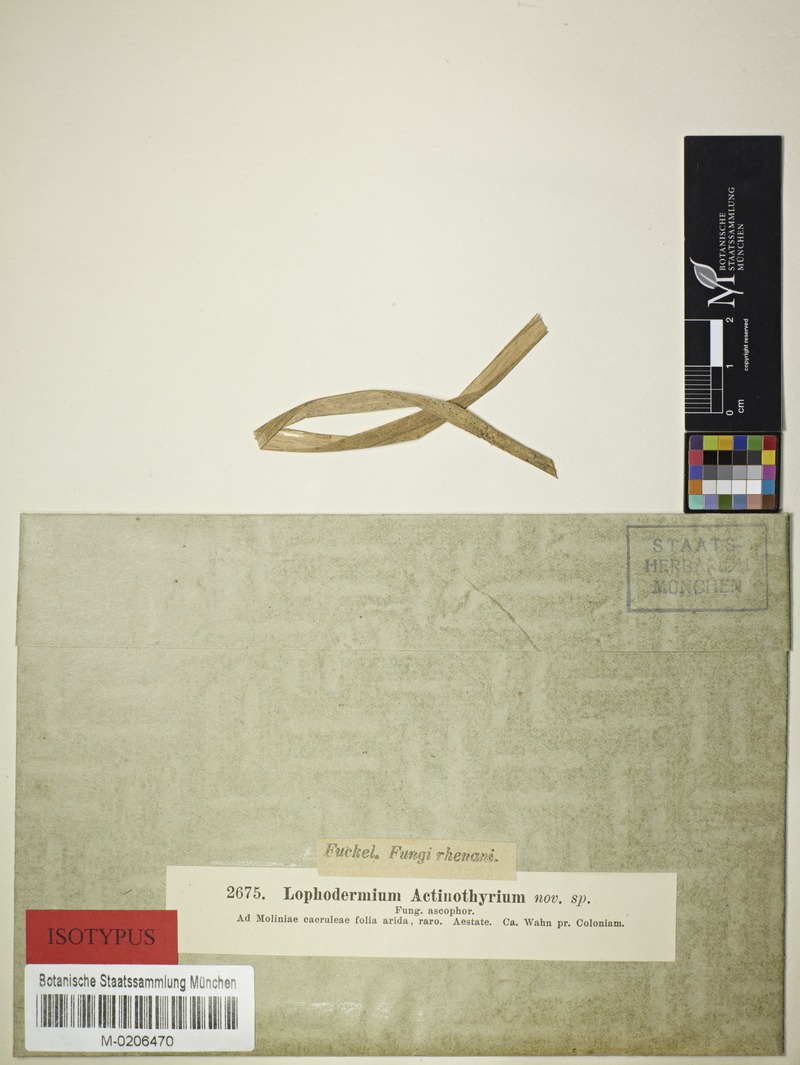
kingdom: Fungi
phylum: Ascomycota
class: Leotiomycetes
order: Rhytismatales
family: Rhytismataceae
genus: Lophodermium
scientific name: Lophodermium actinothyrium
